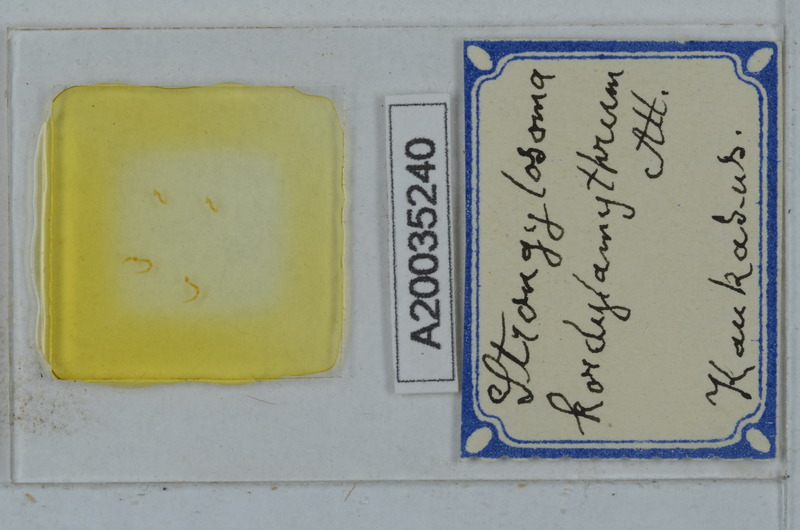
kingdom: Animalia
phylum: Arthropoda
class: Diplopoda
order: Polydesmida
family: Paradoxosomatidae
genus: Strongylosoma
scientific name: Strongylosoma kordylamythrum
